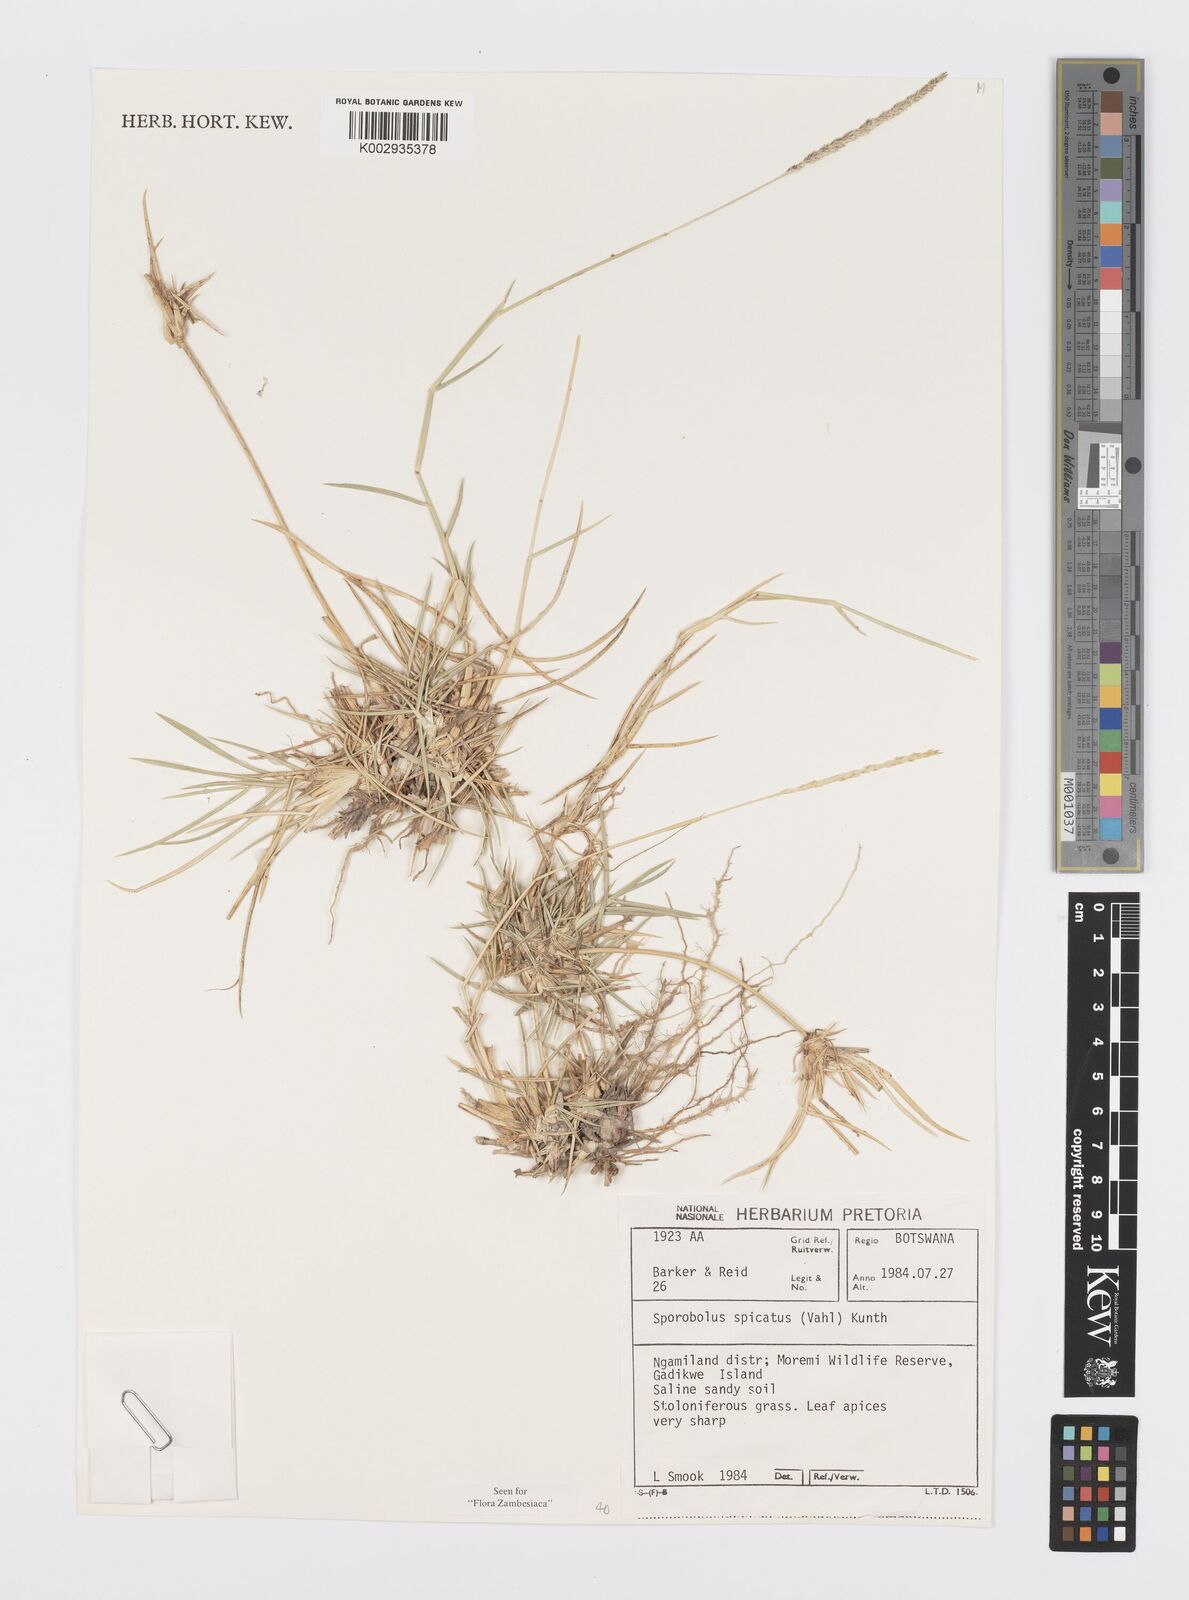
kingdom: Plantae
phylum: Tracheophyta
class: Liliopsida
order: Poales
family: Poaceae
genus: Sporobolus
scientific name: Sporobolus spicatus
